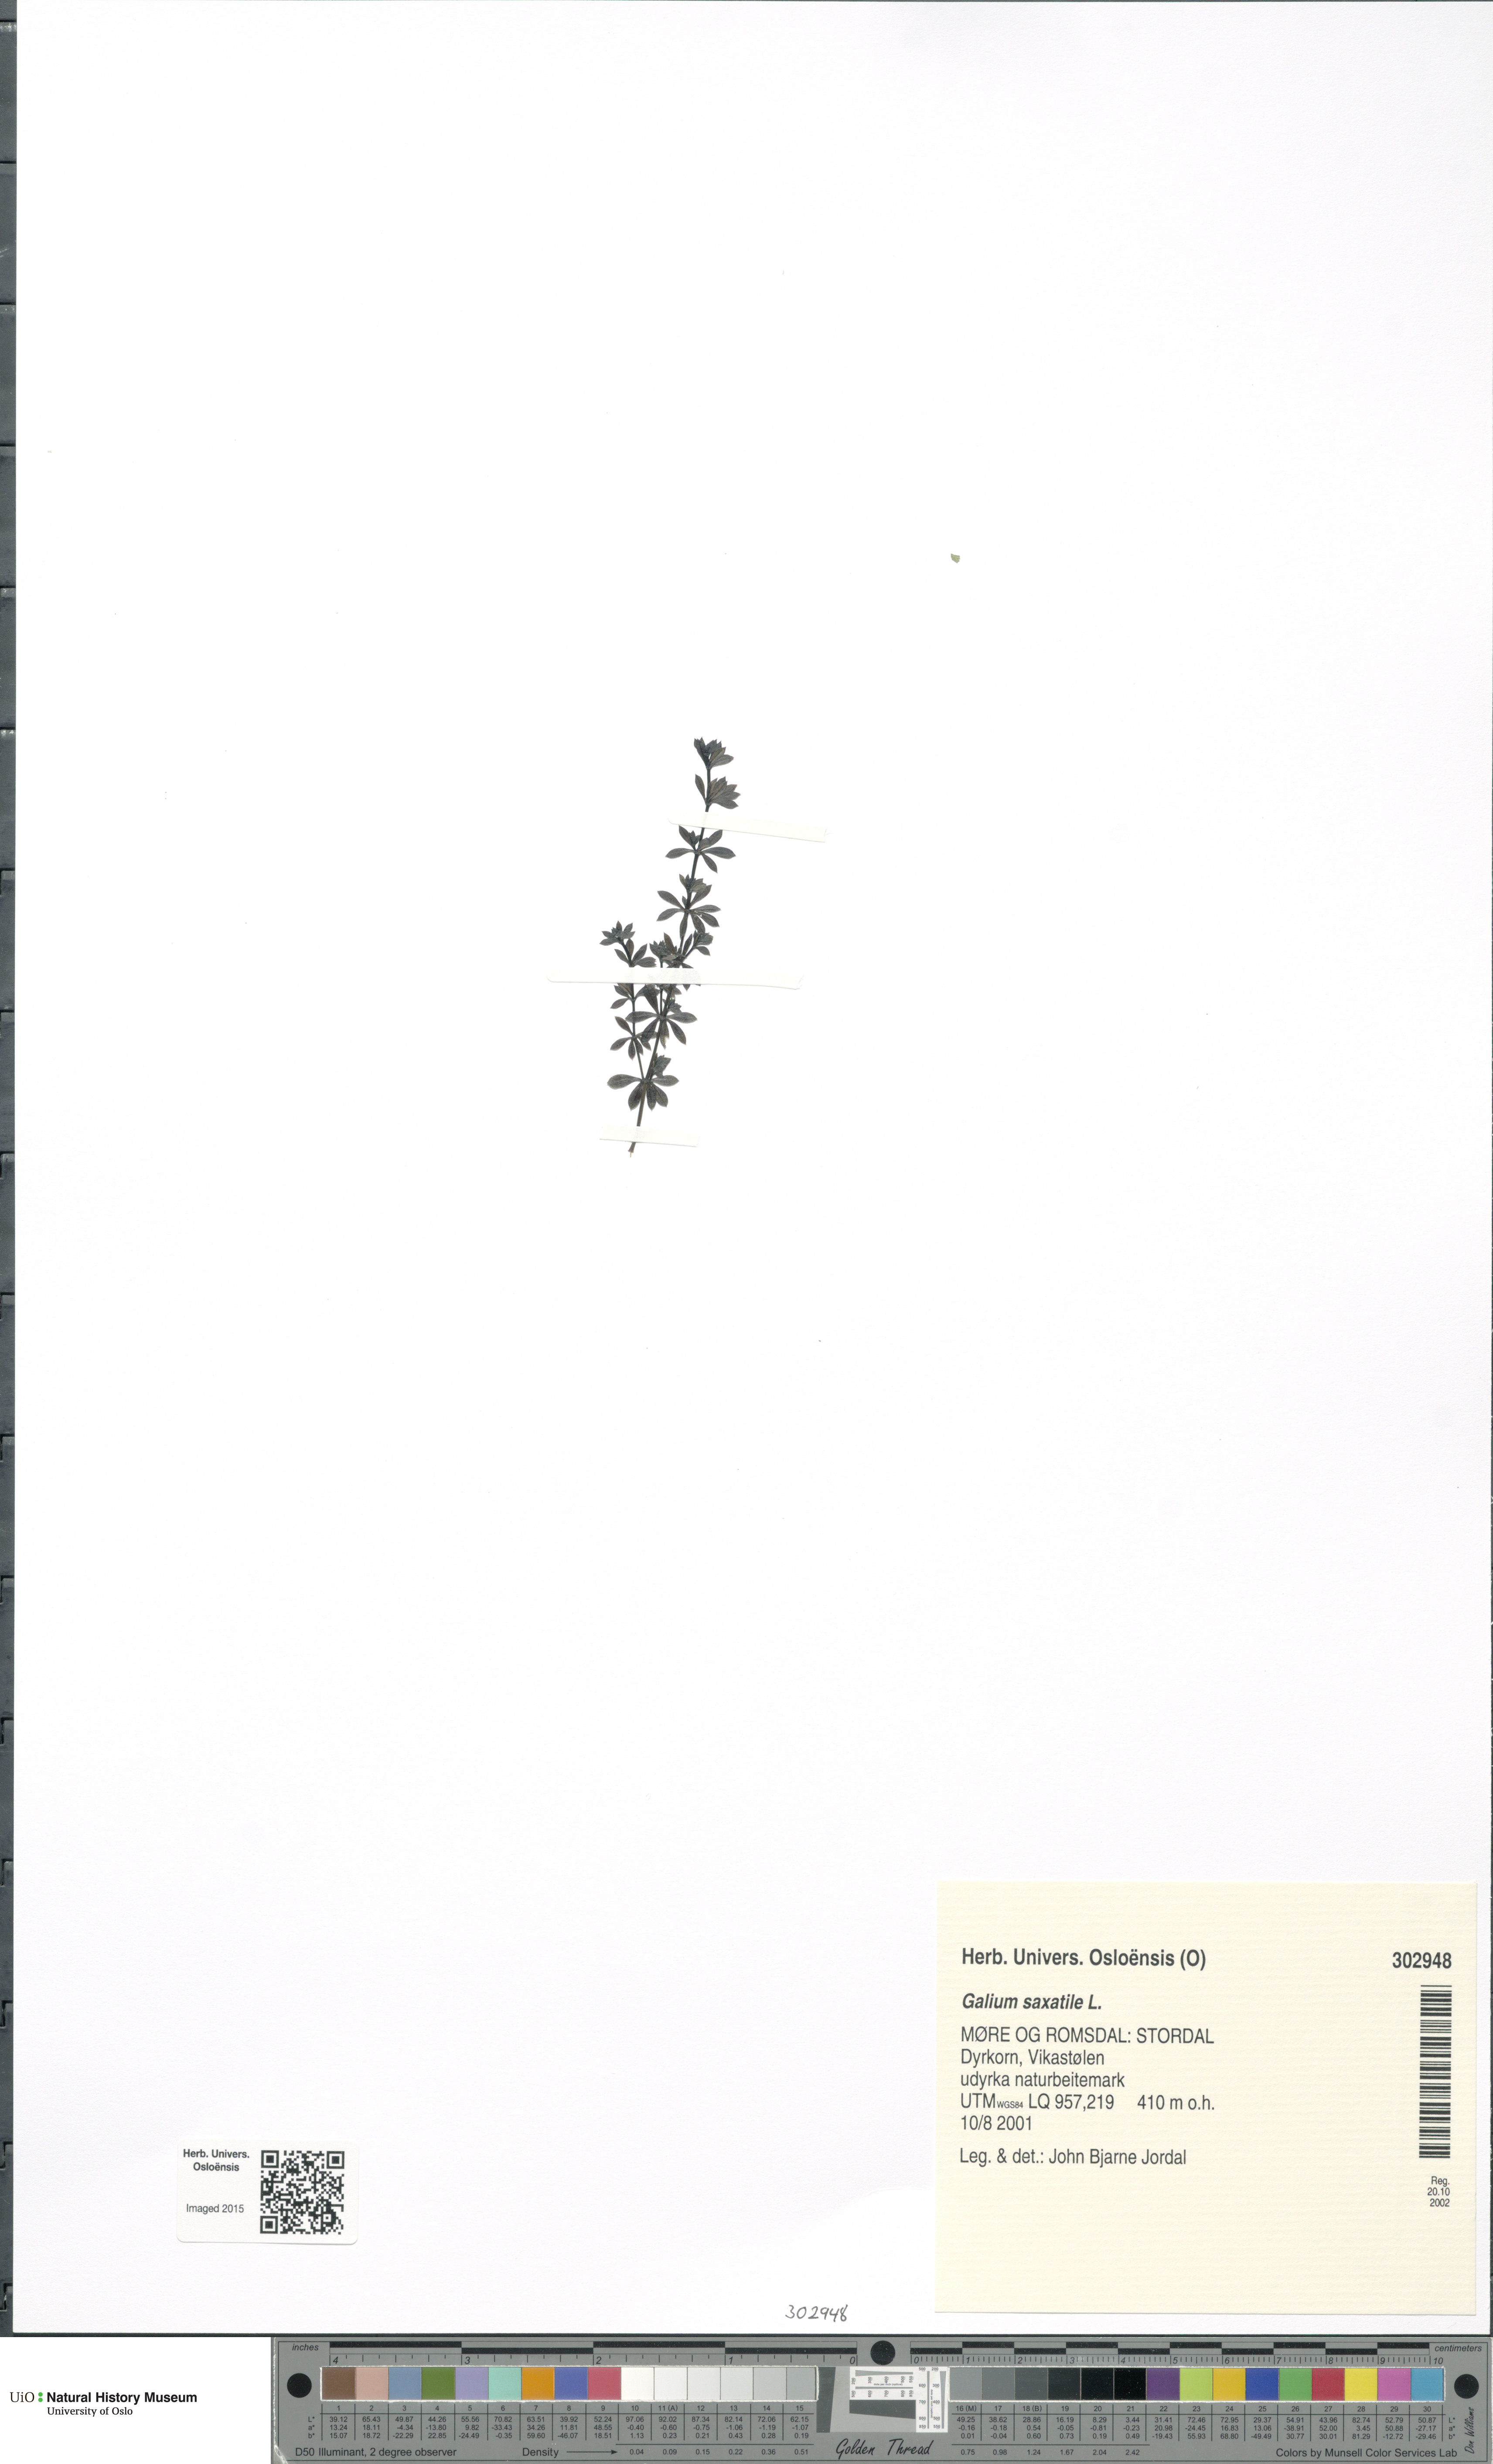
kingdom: Plantae
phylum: Tracheophyta
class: Magnoliopsida
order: Gentianales
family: Rubiaceae
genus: Galium
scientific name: Galium saxatile
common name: Heath bedstraw
